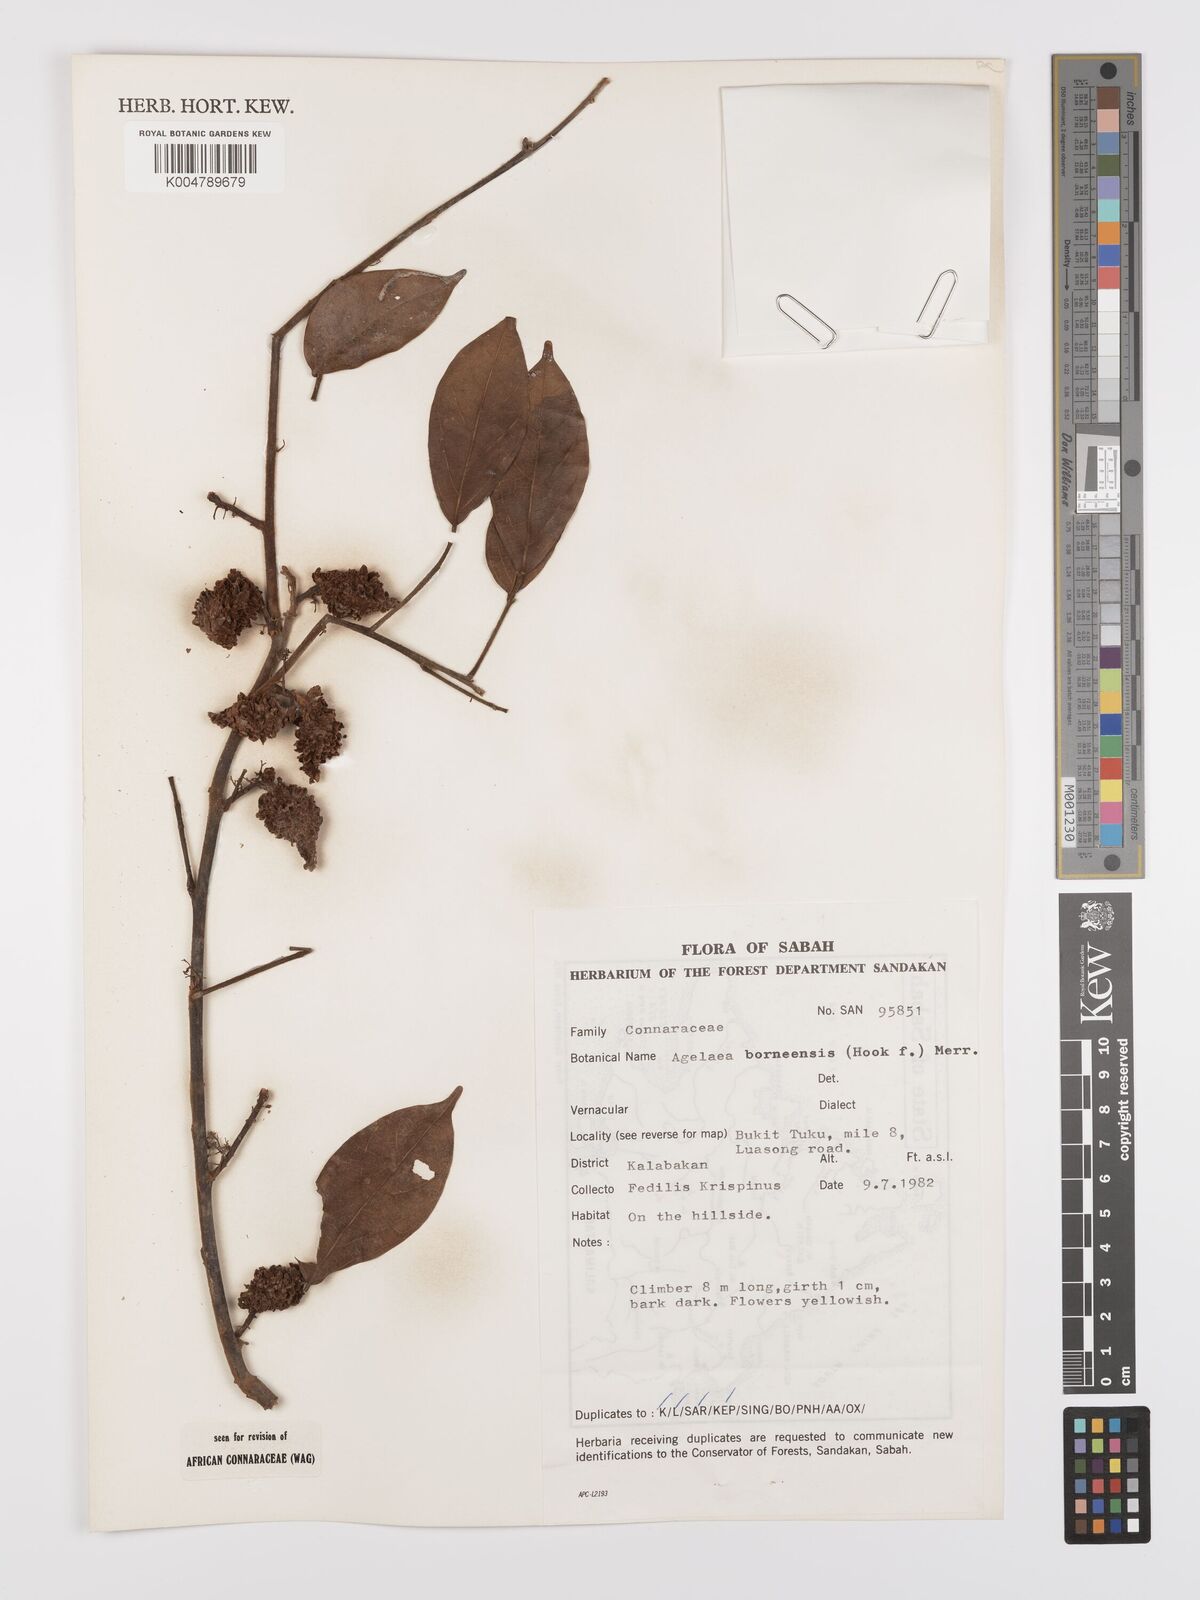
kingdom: Plantae
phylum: Tracheophyta
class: Magnoliopsida
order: Oxalidales
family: Connaraceae
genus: Agelaea
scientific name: Agelaea borneensis
